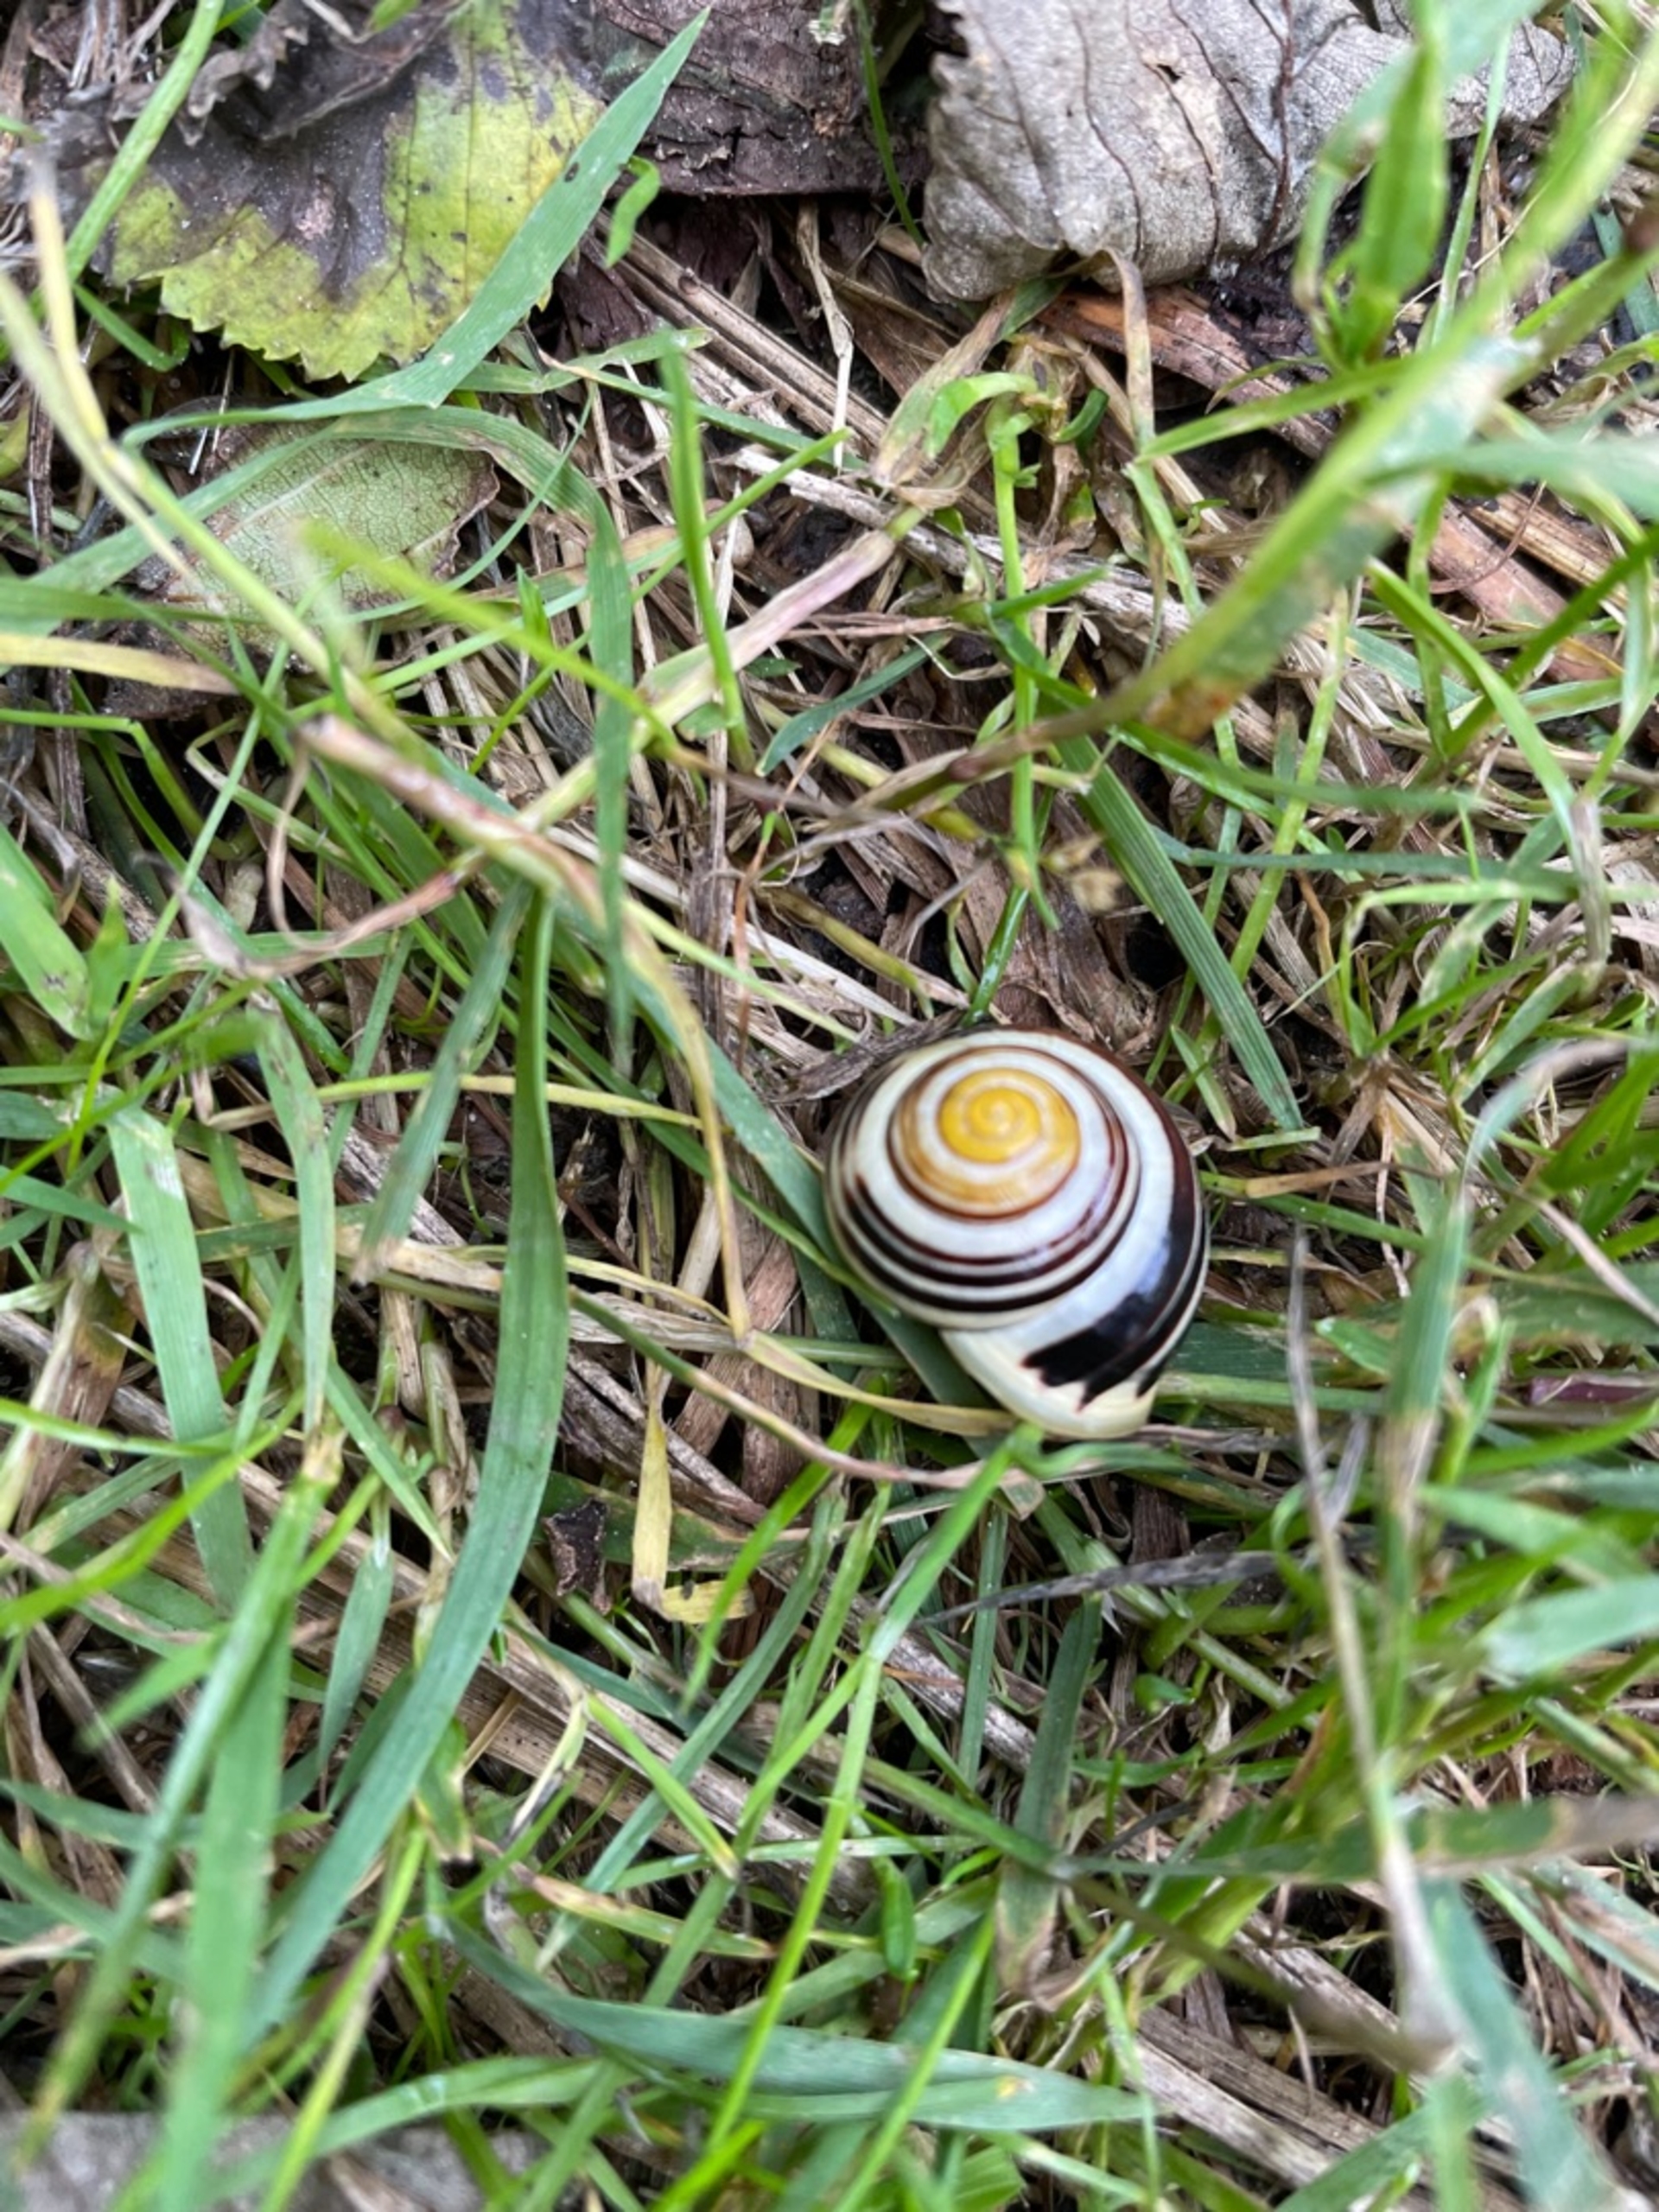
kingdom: Animalia
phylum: Mollusca
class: Gastropoda
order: Stylommatophora
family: Helicidae
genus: Cepaea
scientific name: Cepaea hortensis
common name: Havesnegl
